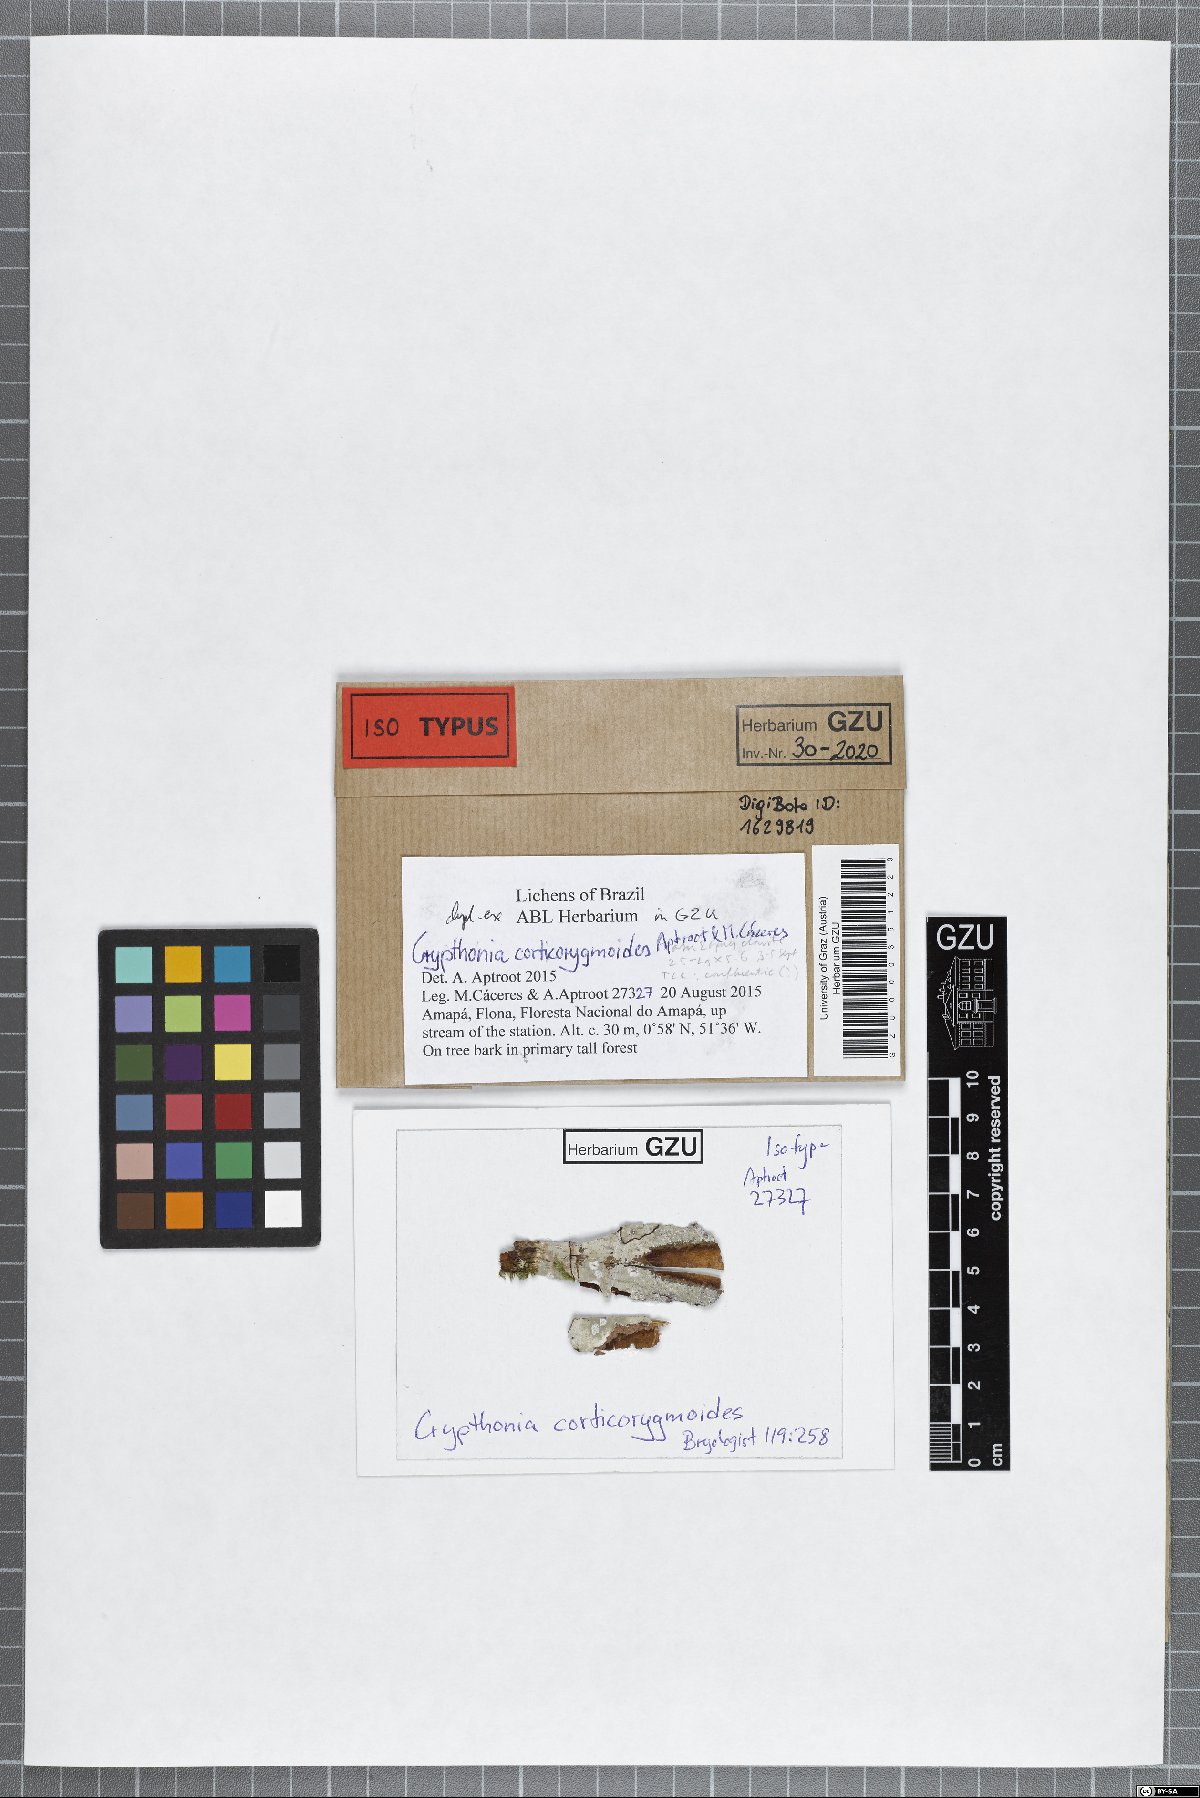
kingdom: Fungi
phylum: Ascomycota
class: Arthoniomycetes
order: Arthoniales
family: Arthoniaceae
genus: Crypthonia
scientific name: Crypthonia corticorygmoides
